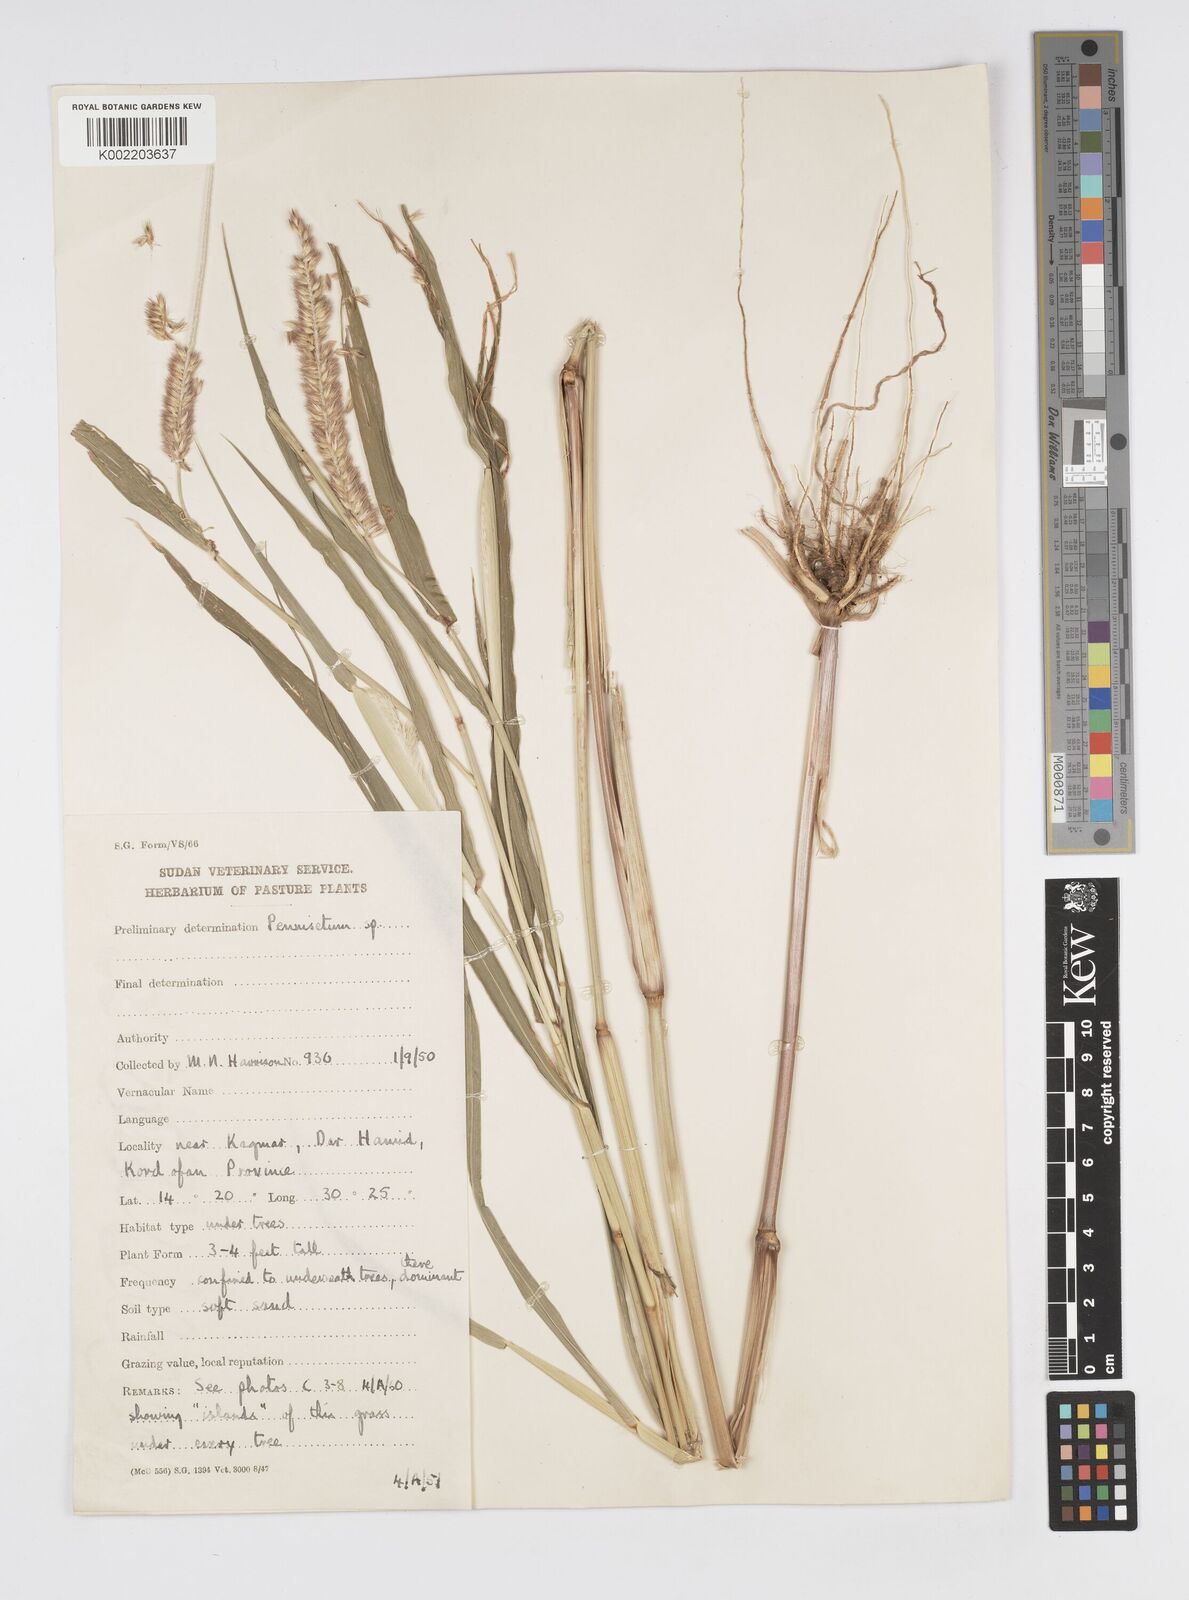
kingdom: Plantae
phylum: Tracheophyta
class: Liliopsida
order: Poales
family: Poaceae
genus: Cenchrus
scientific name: Cenchrus violaceus
